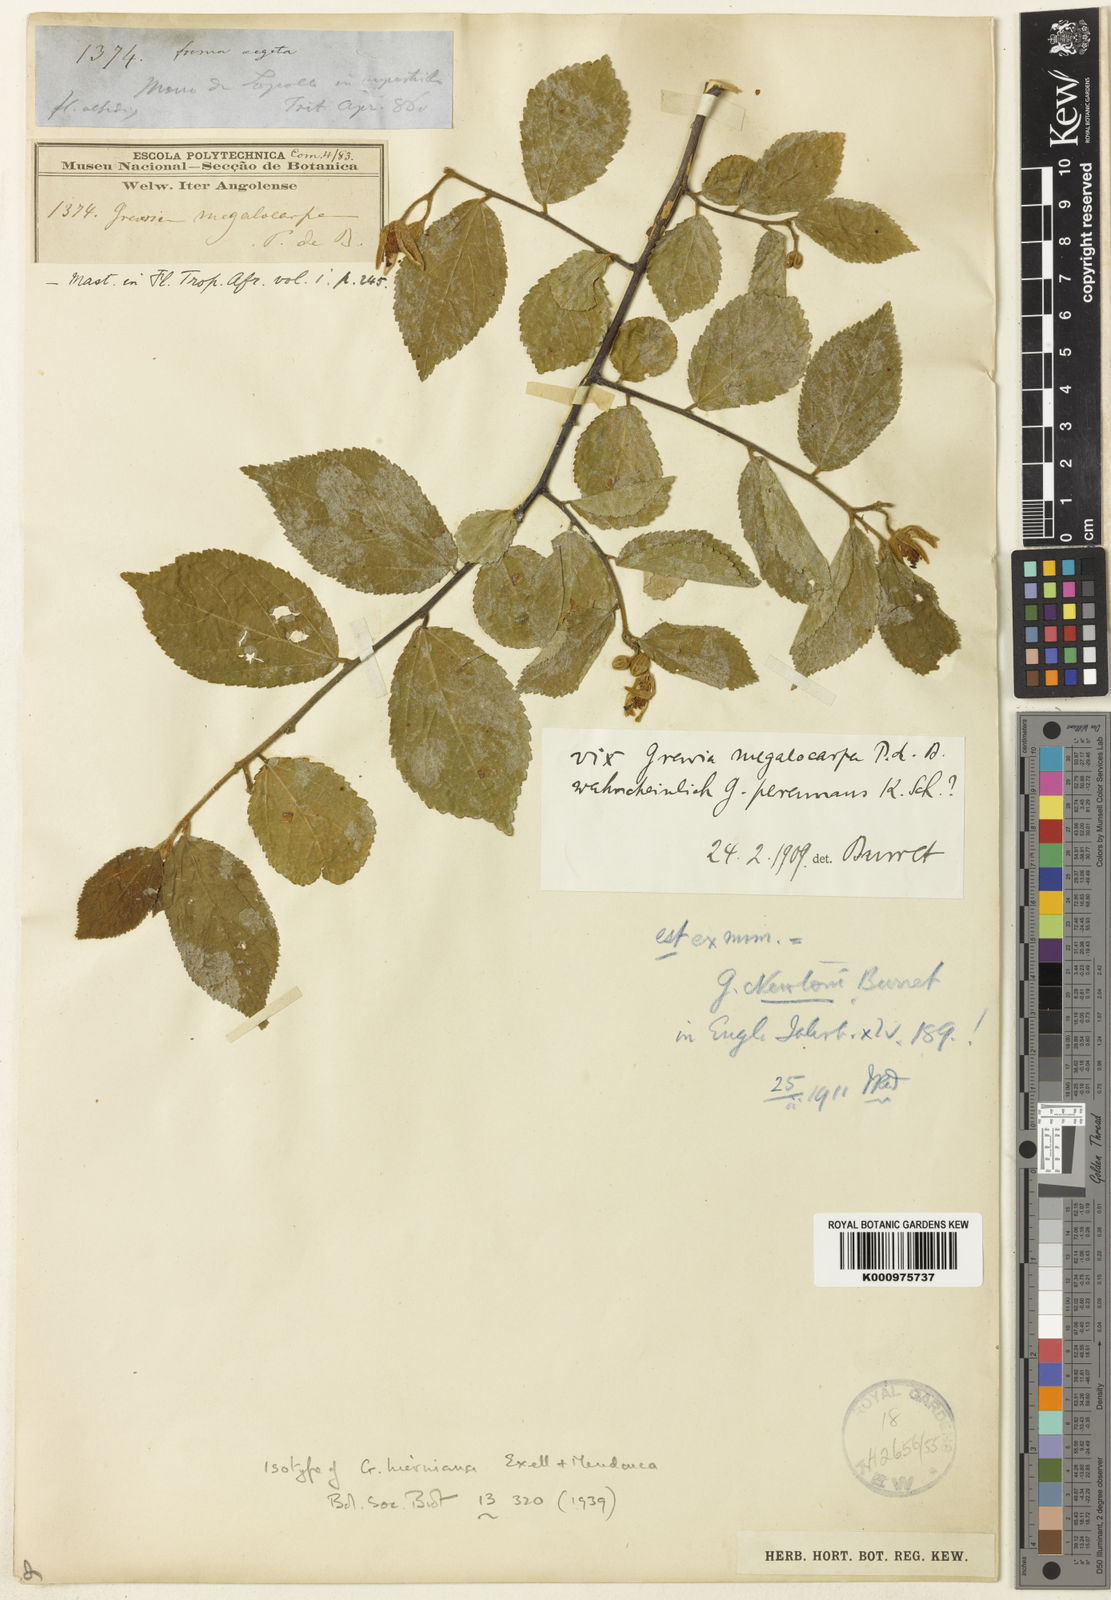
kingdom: Plantae
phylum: Tracheophyta
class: Magnoliopsida
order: Malvales
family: Malvaceae
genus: Grewia
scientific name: Grewia
